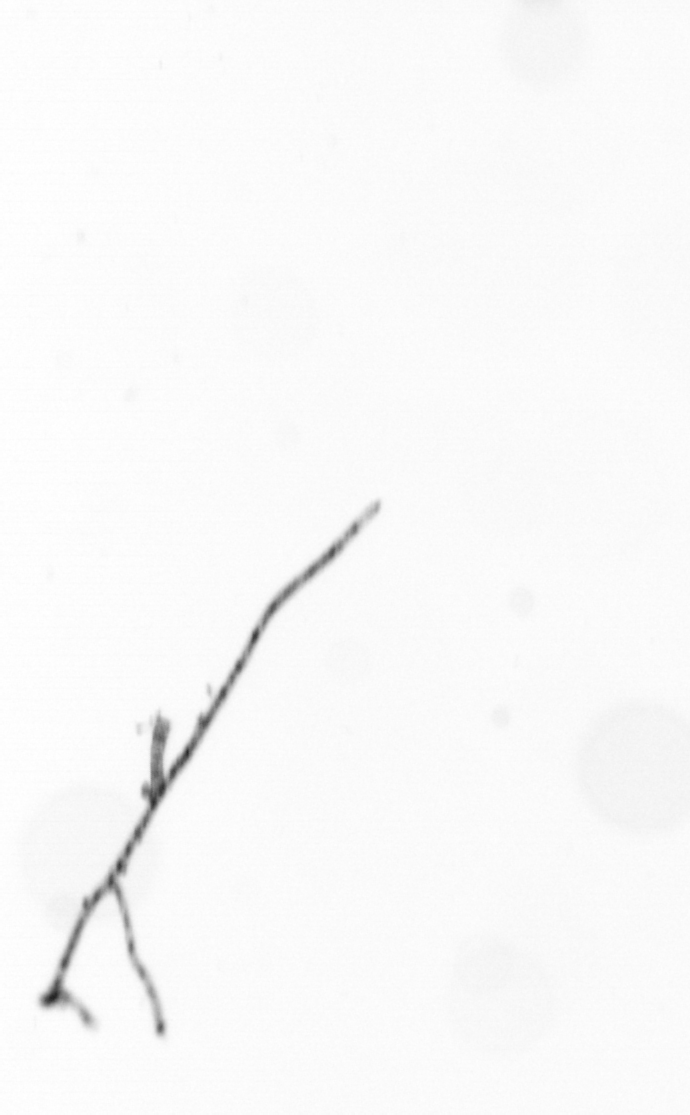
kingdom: Chromista
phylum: Ochrophyta
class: Bacillariophyceae
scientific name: Bacillariophyceae
